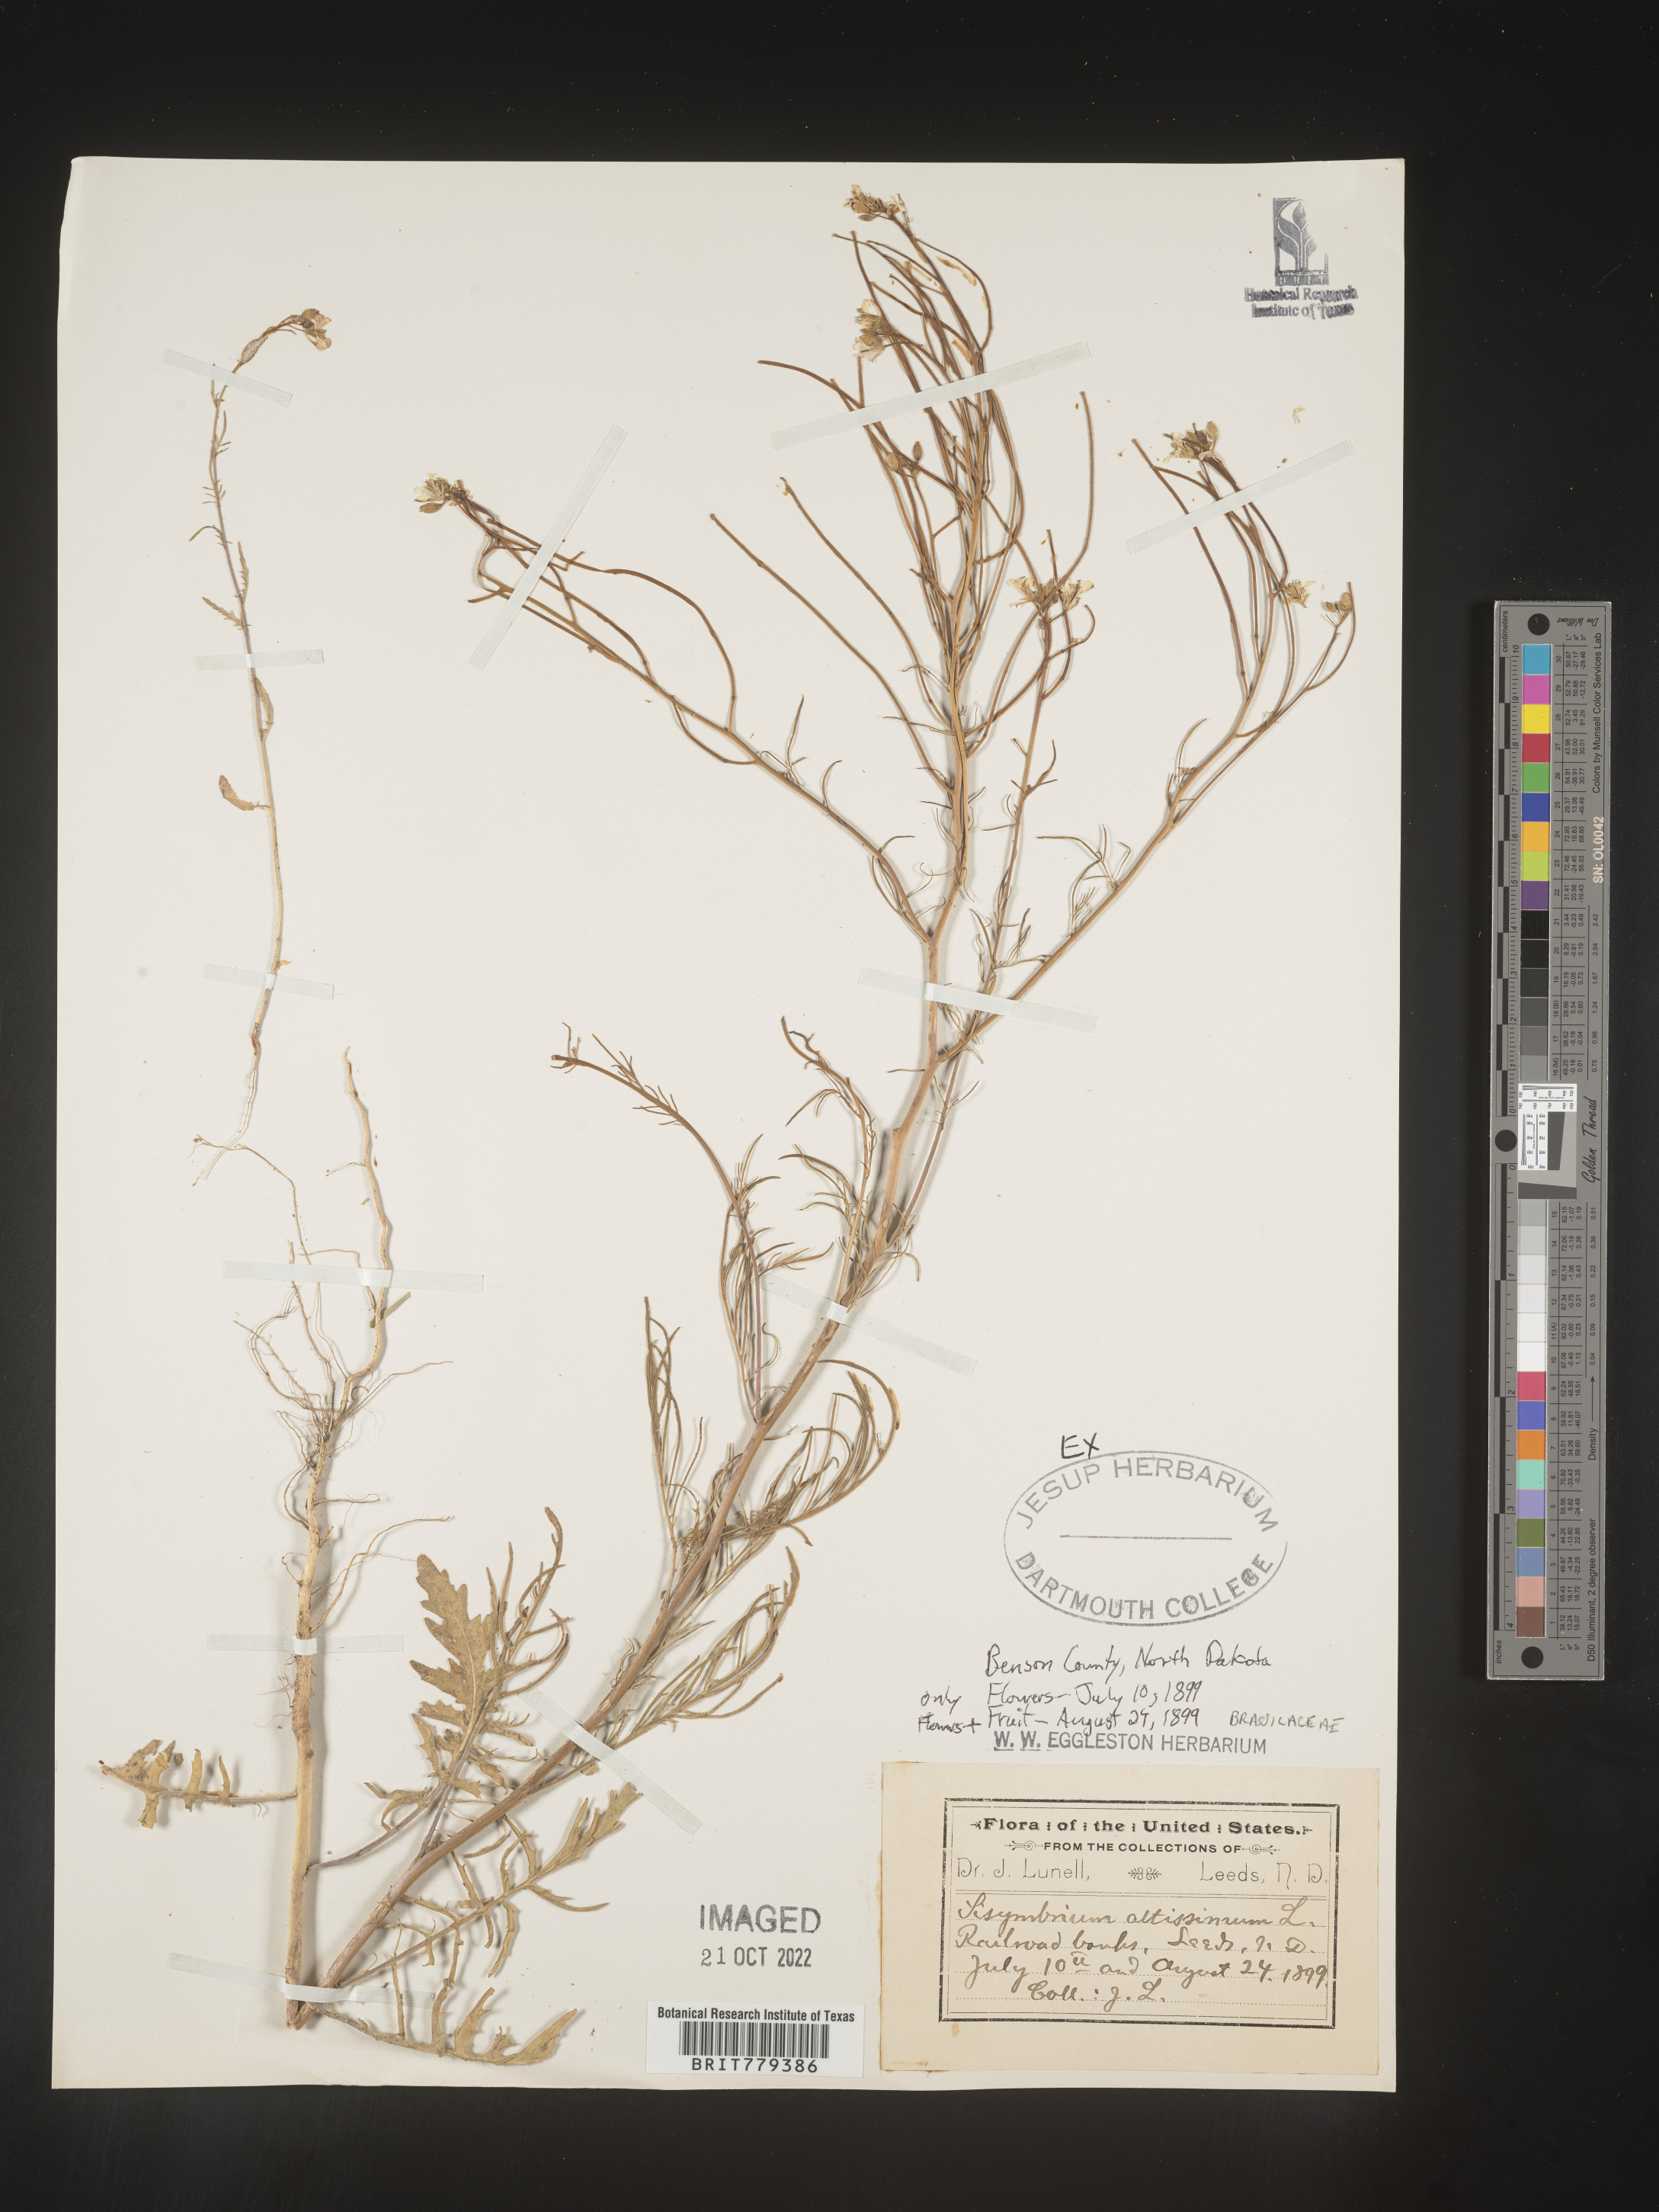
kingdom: Plantae
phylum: Tracheophyta
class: Magnoliopsida
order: Brassicales
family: Brassicaceae
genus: Sisymbrium
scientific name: Sisymbrium altissimum
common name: Tall rocket
